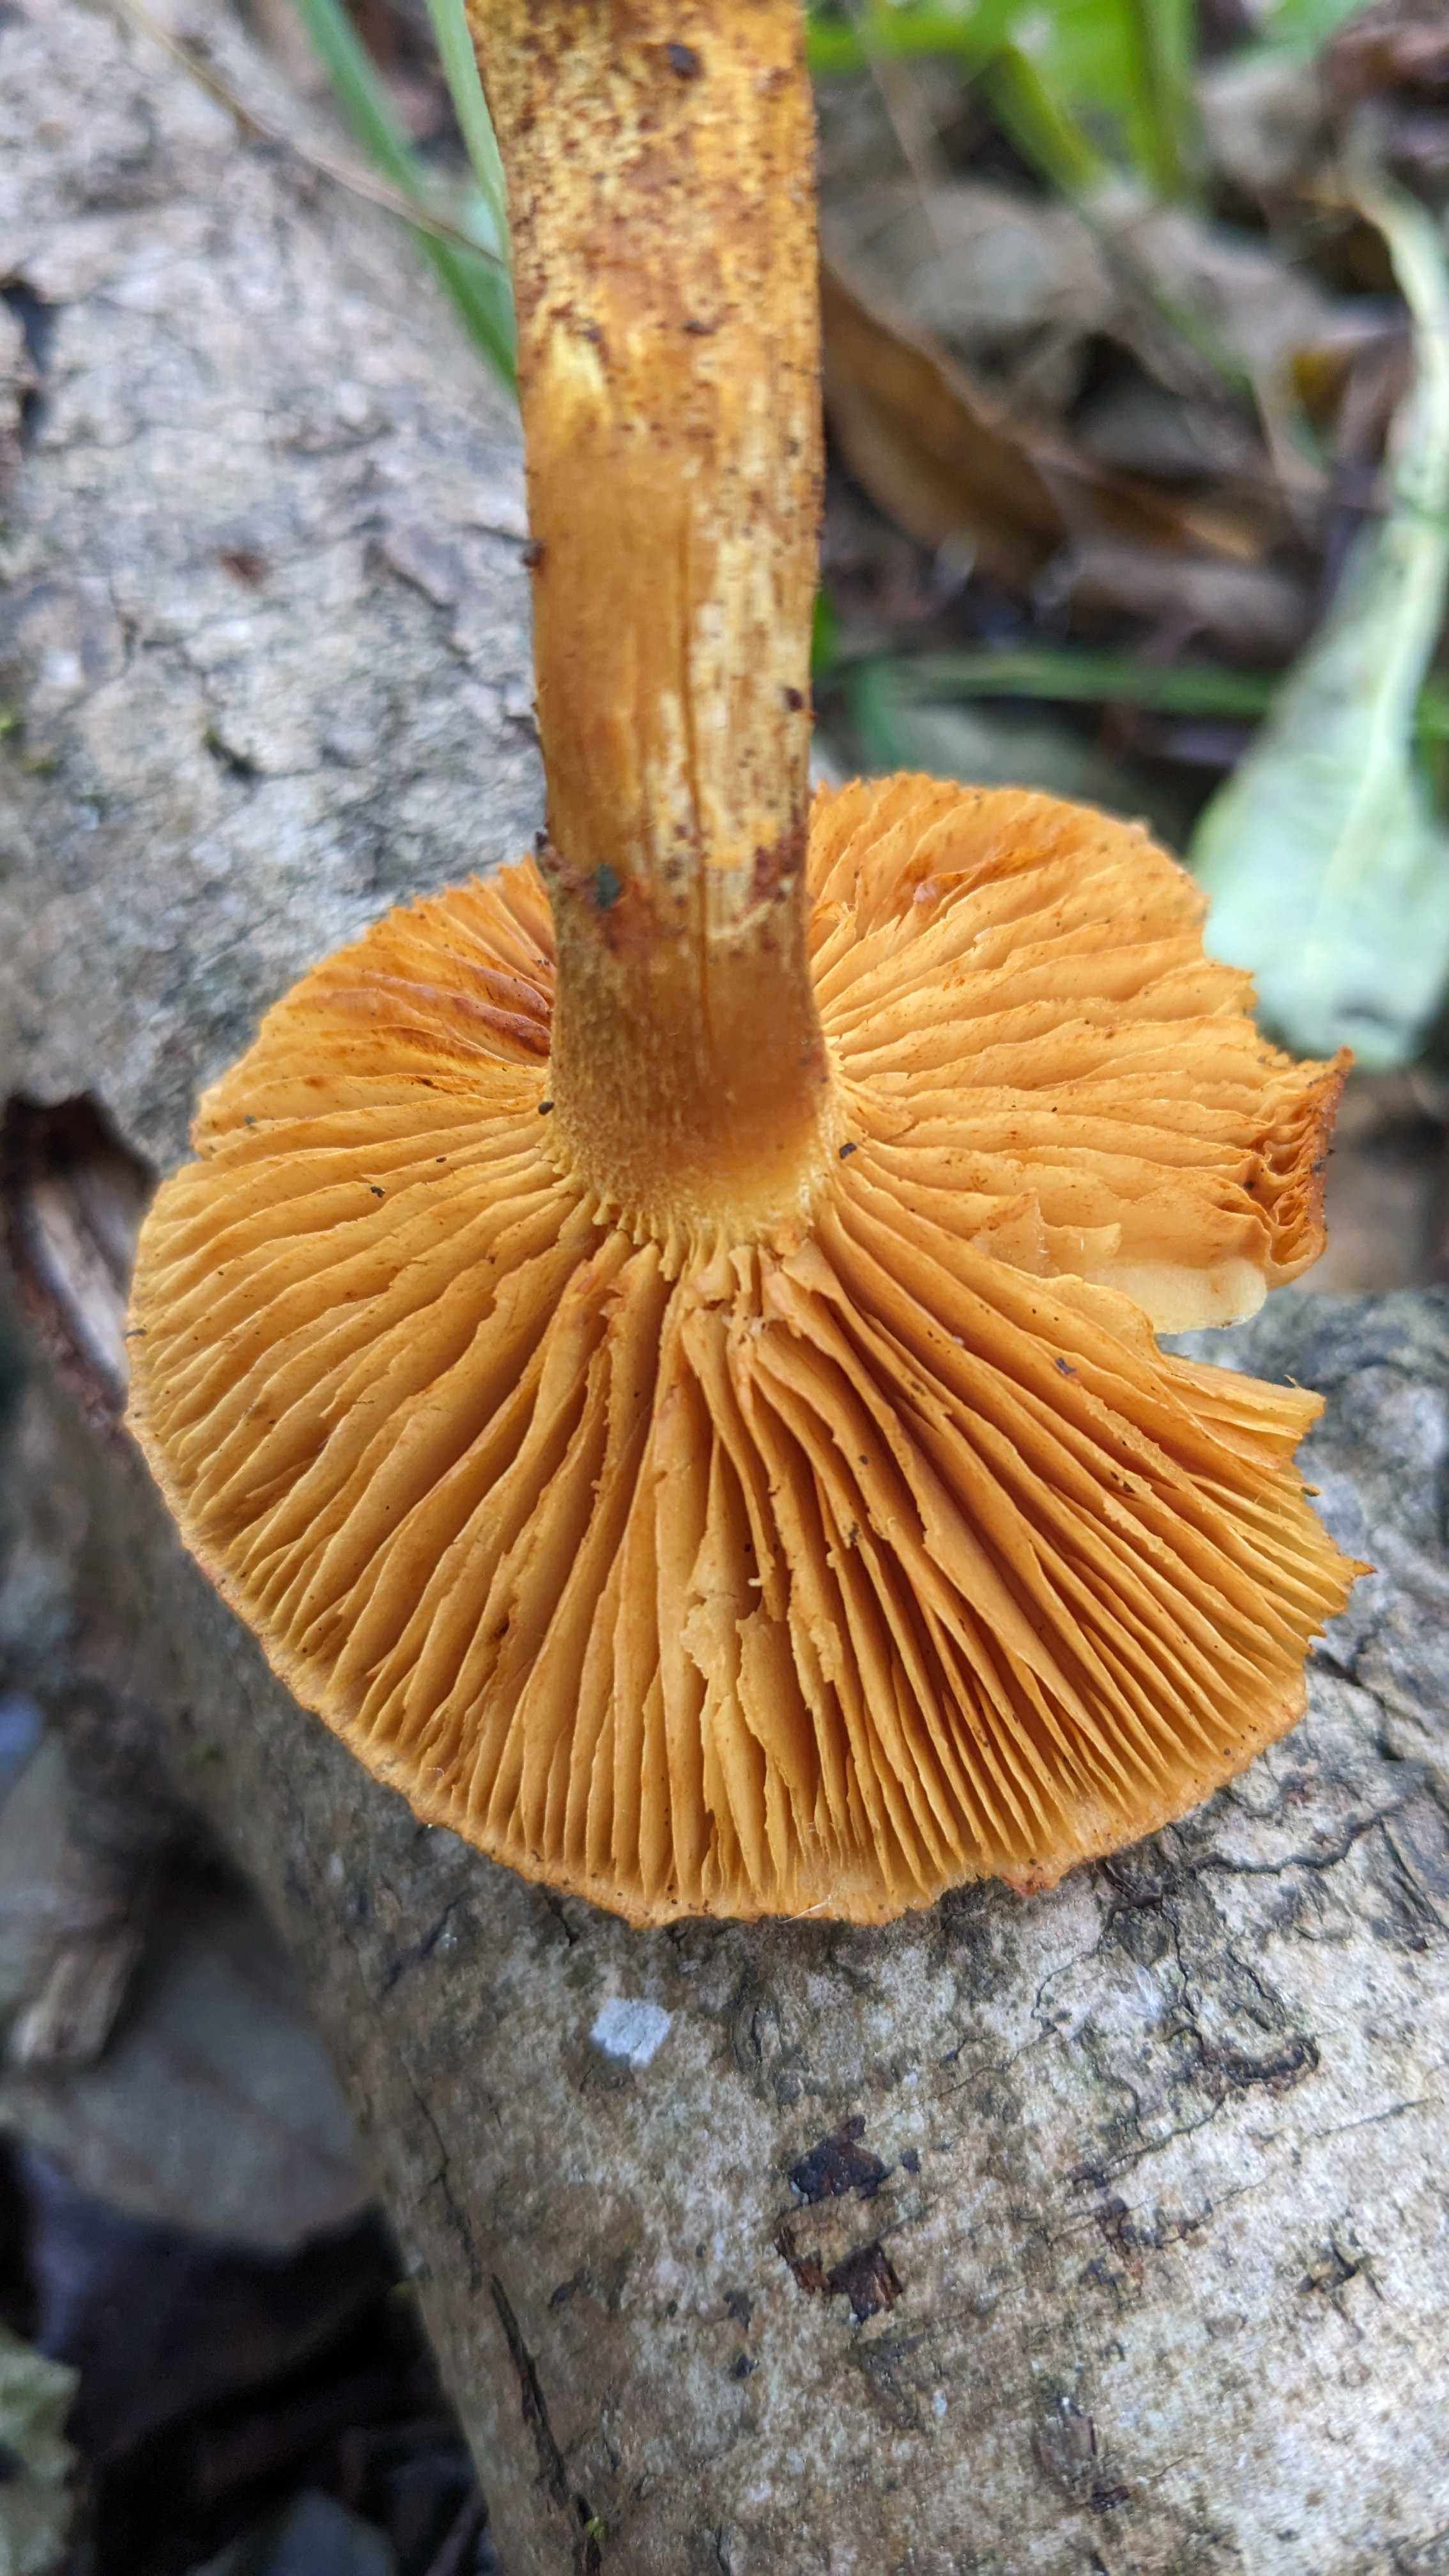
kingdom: Fungi
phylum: Basidiomycota
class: Agaricomycetes
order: Agaricales
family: Hymenogastraceae
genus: Gymnopilus
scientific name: Gymnopilus spectabilis
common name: fibret flammehat
